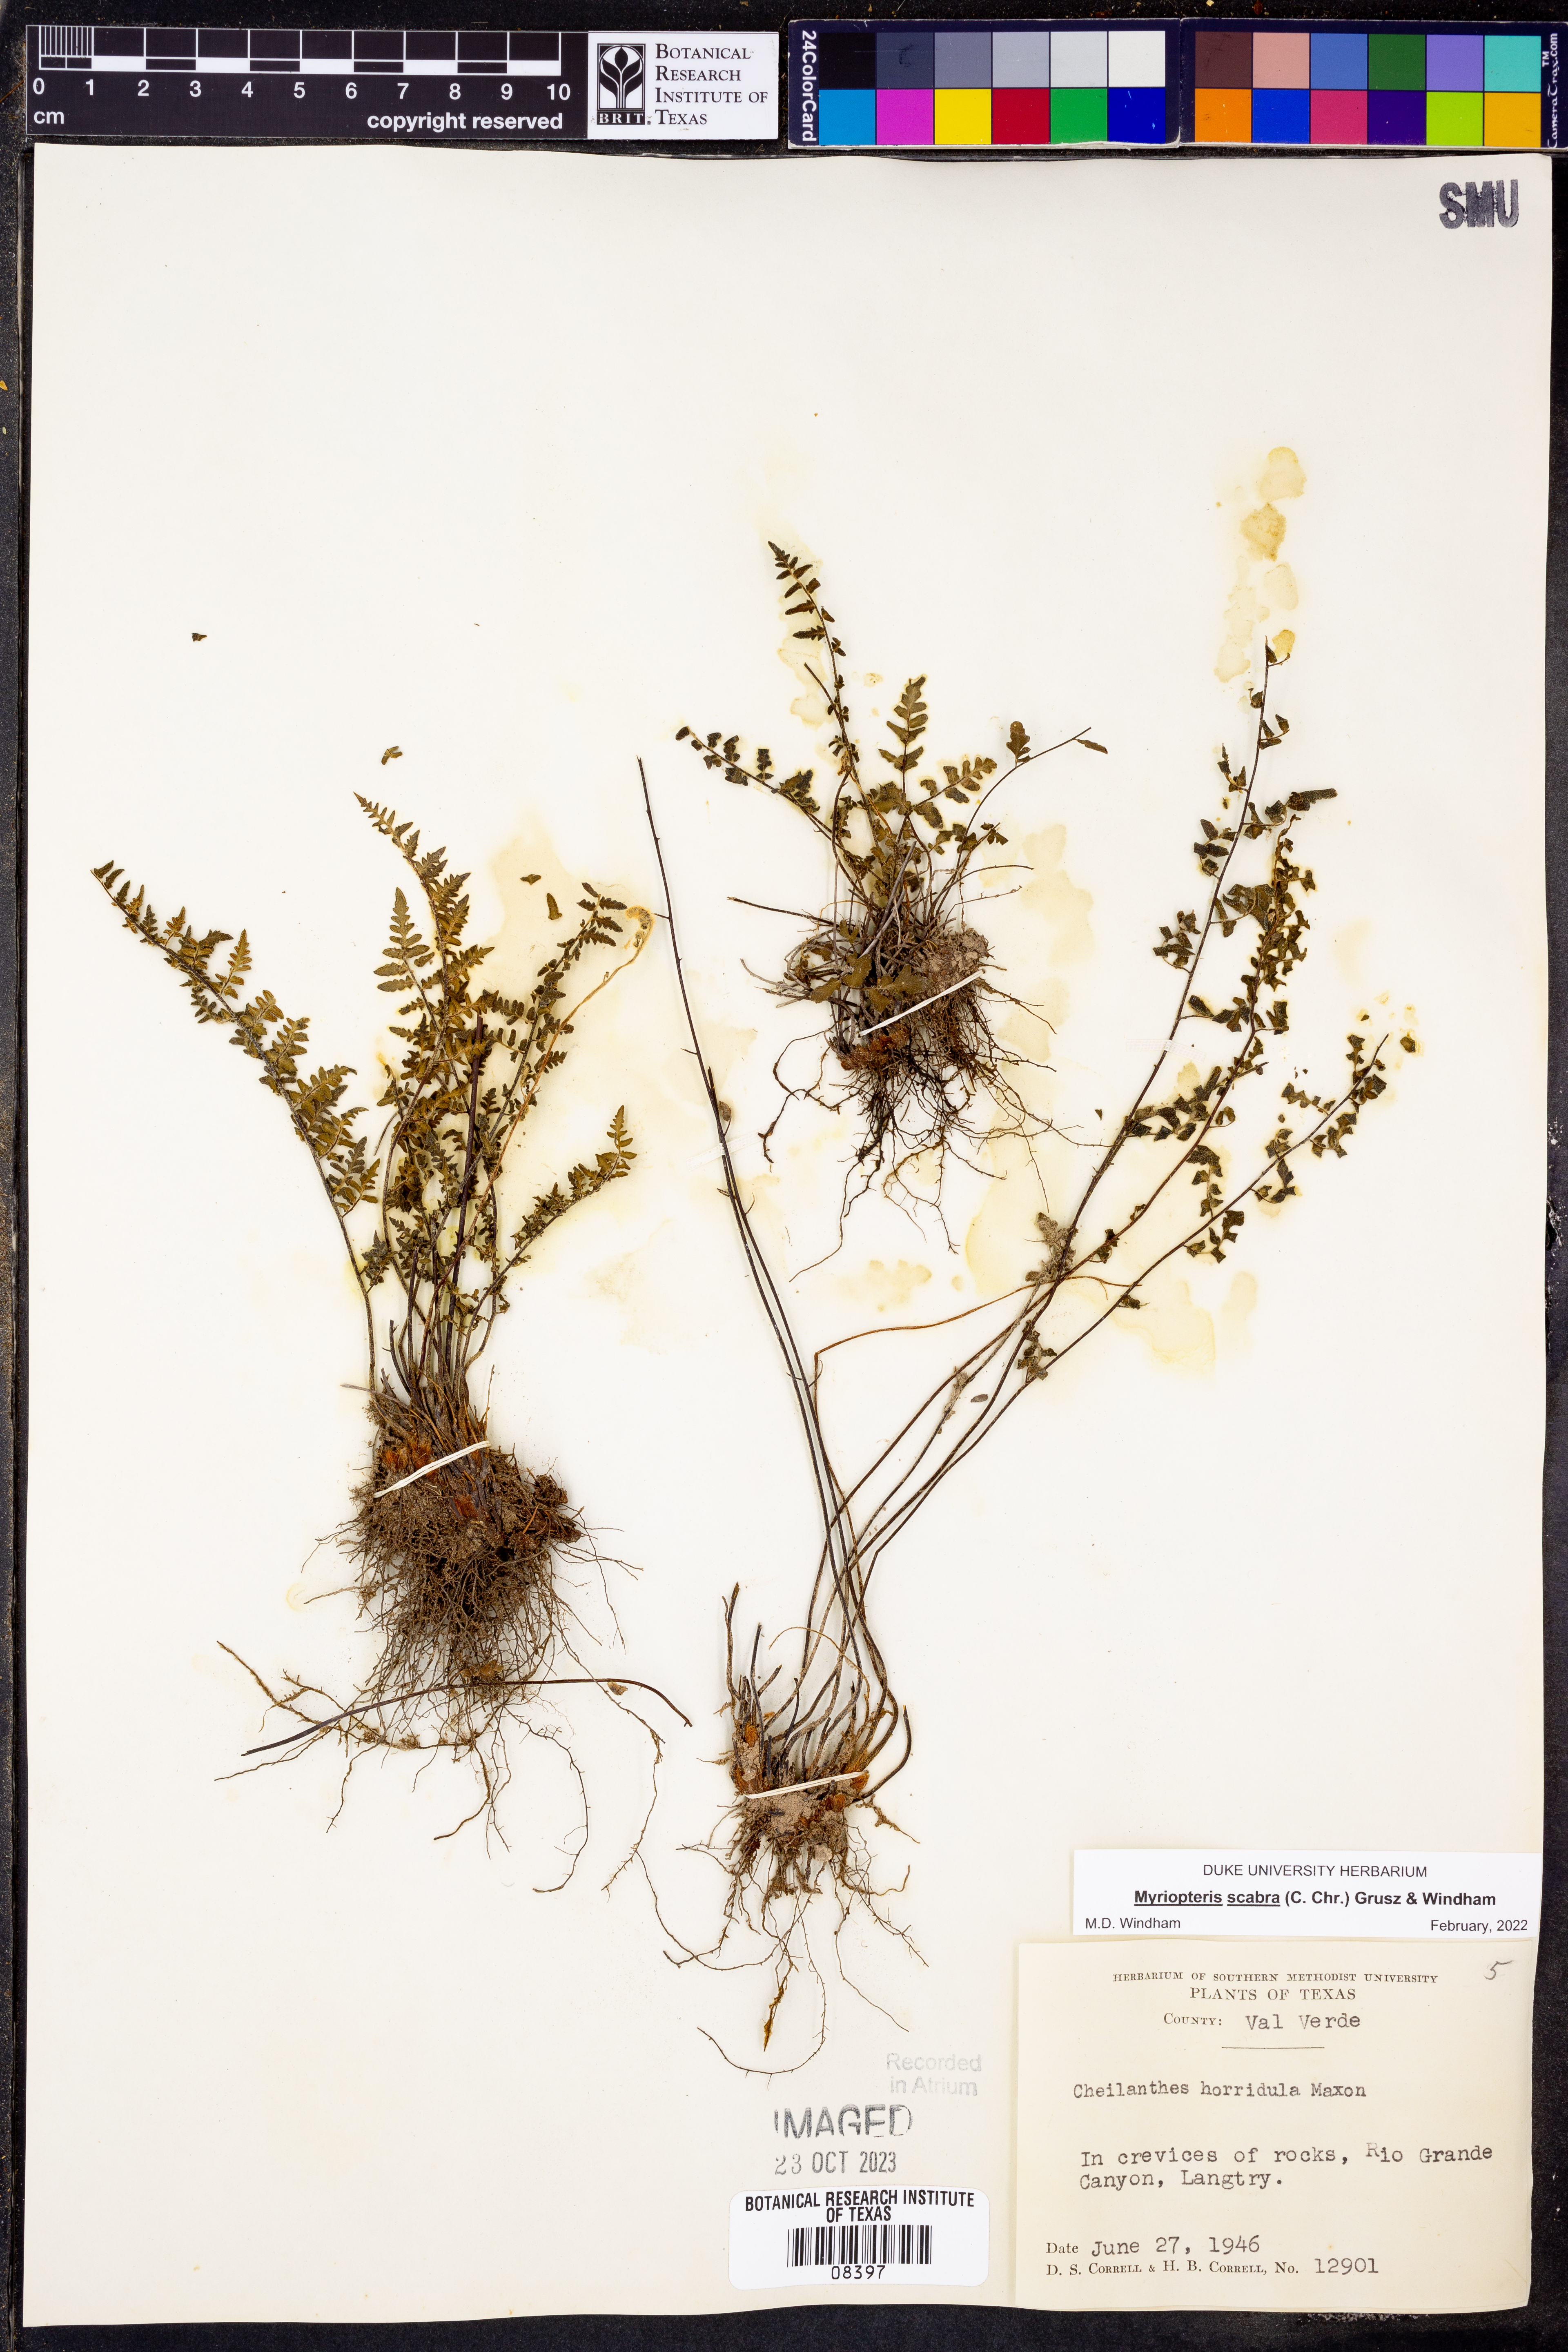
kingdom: Plantae
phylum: Tracheophyta
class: Polypodiopsida
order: Polypodiales
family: Pteridaceae
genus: Myriopteris
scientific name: Myriopteris scabra
